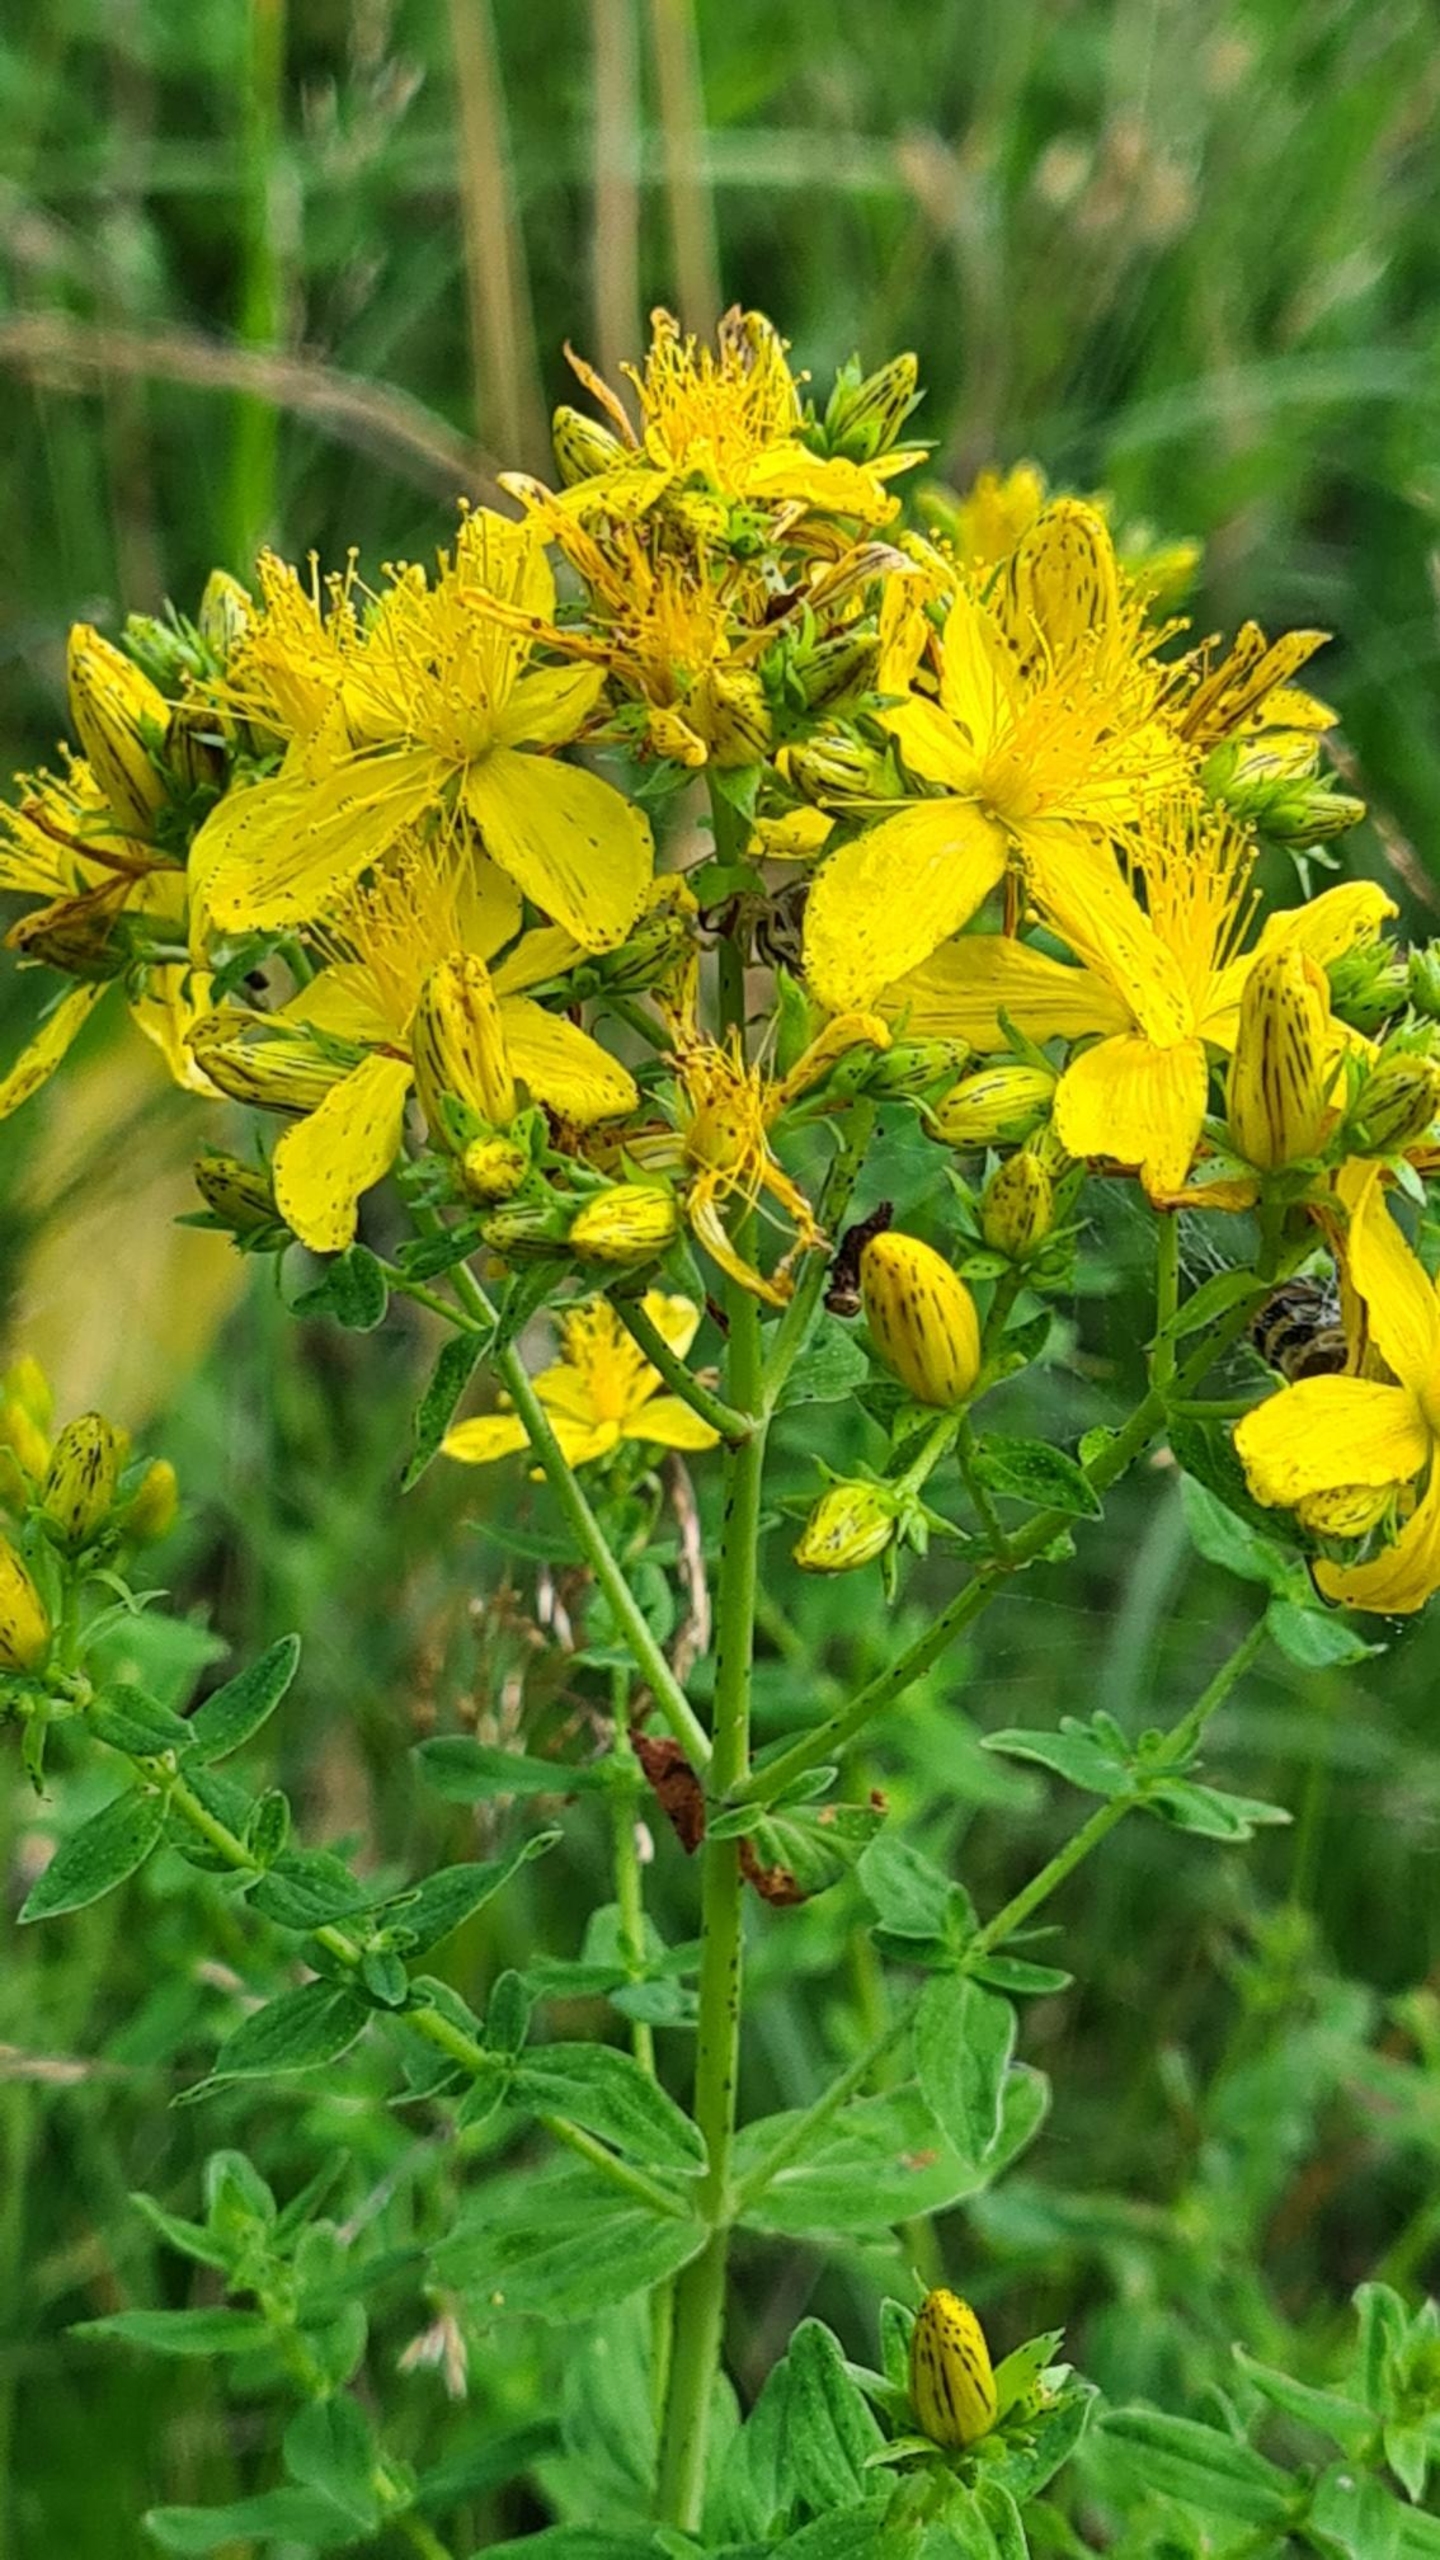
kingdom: Plantae
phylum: Tracheophyta
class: Magnoliopsida
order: Malpighiales
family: Hypericaceae
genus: Hypericum
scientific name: Hypericum perforatum
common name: Prikbladet perikon
